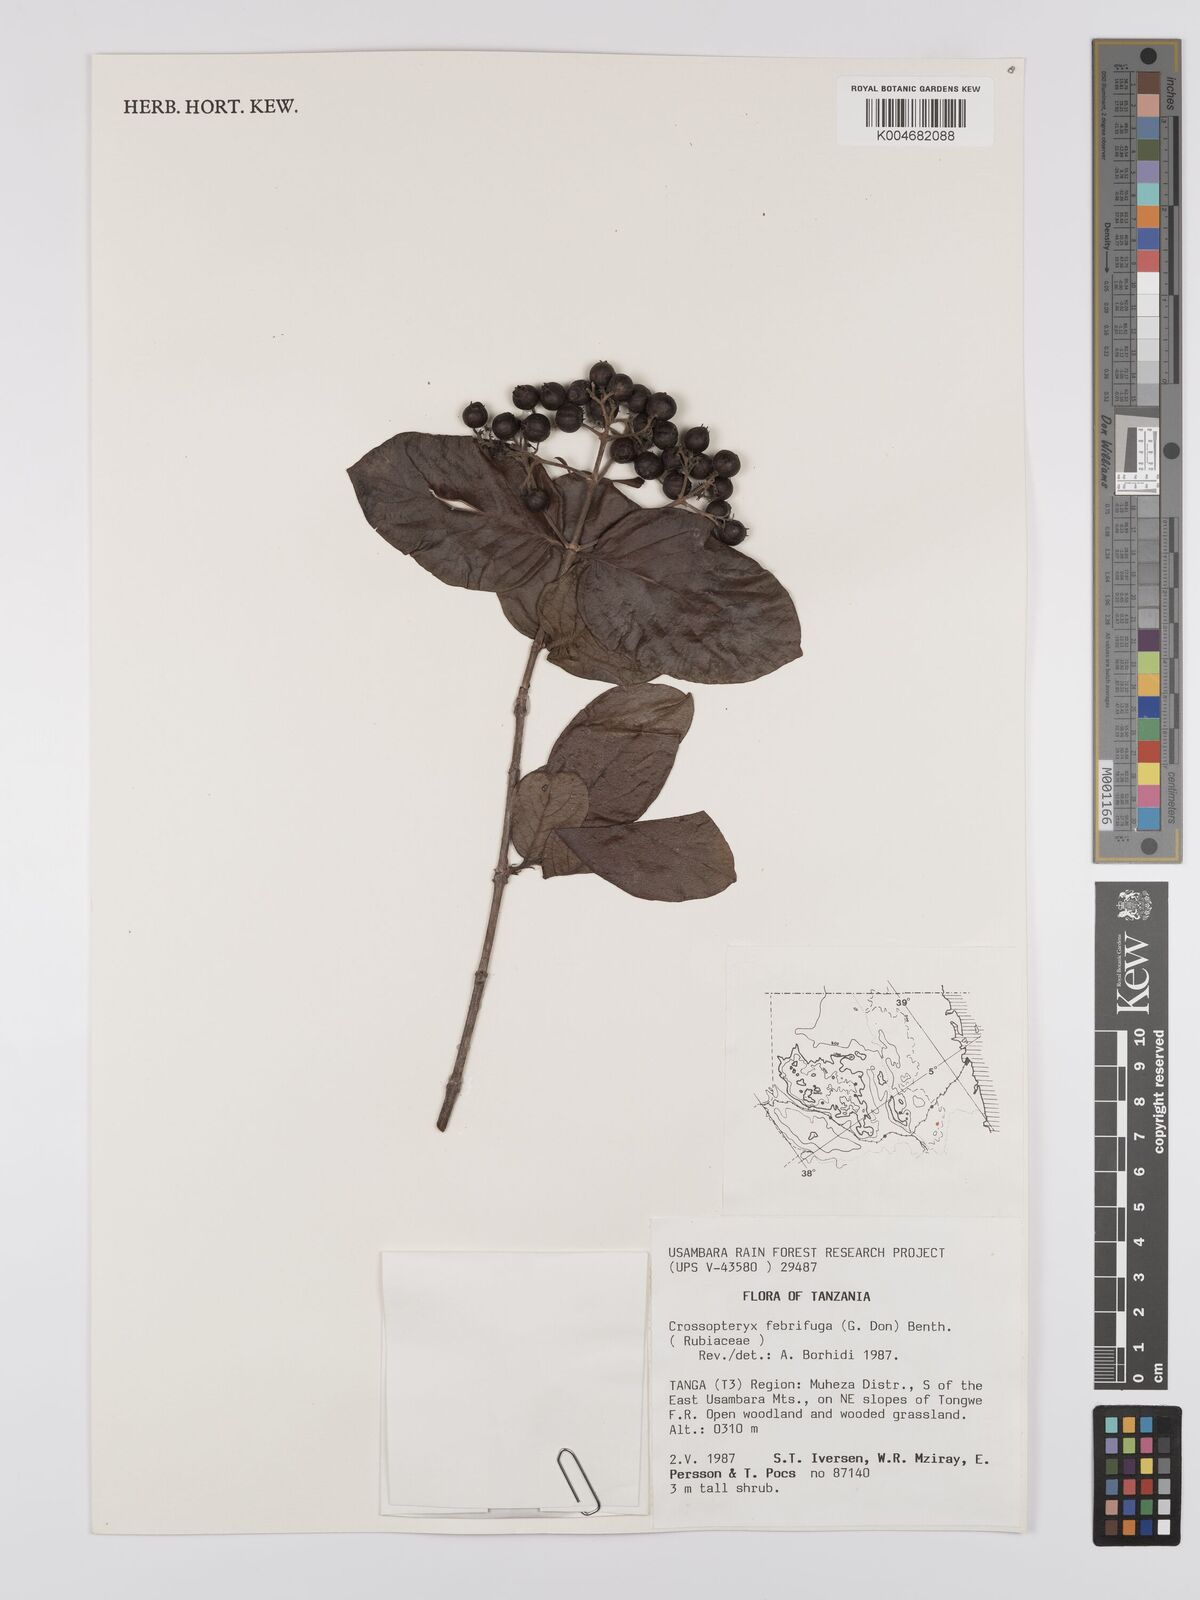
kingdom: Plantae
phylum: Tracheophyta
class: Magnoliopsida
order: Gentianales
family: Rubiaceae
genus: Crossopteryx
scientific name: Crossopteryx febrifuga
